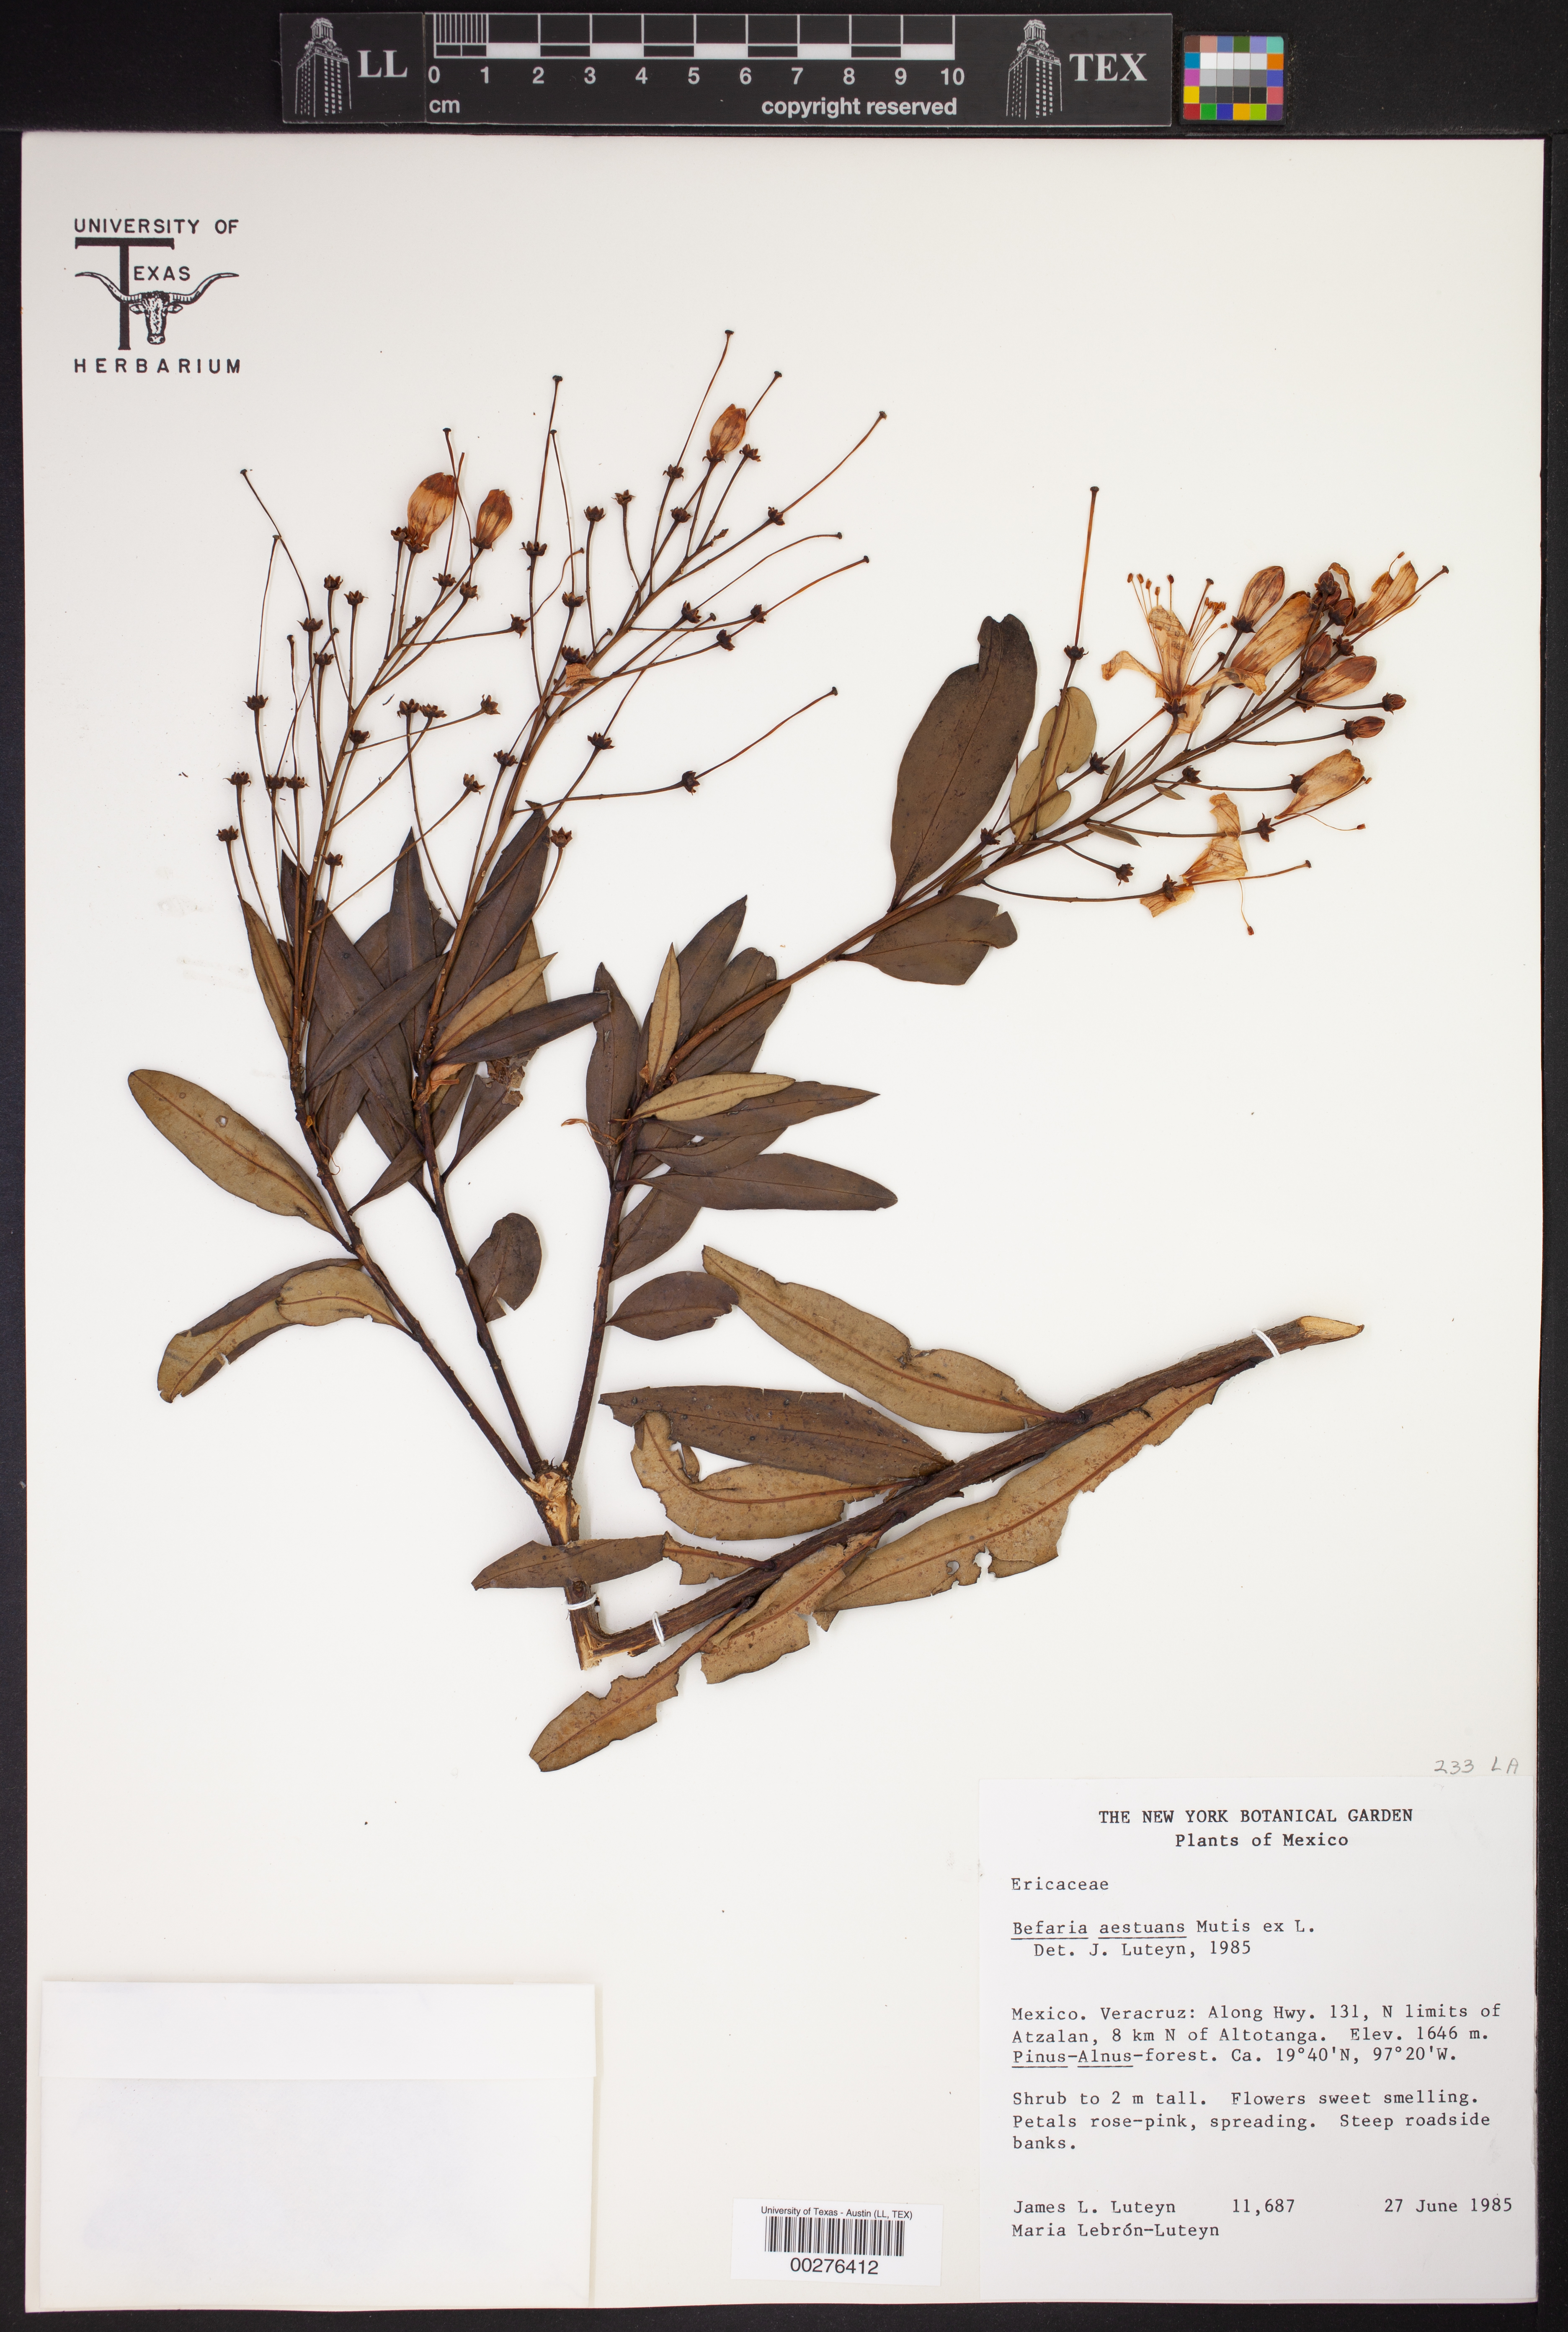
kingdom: Plantae
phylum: Tracheophyta
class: Magnoliopsida
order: Ericales
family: Ericaceae
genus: Bejaria
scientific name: Bejaria aestuans
